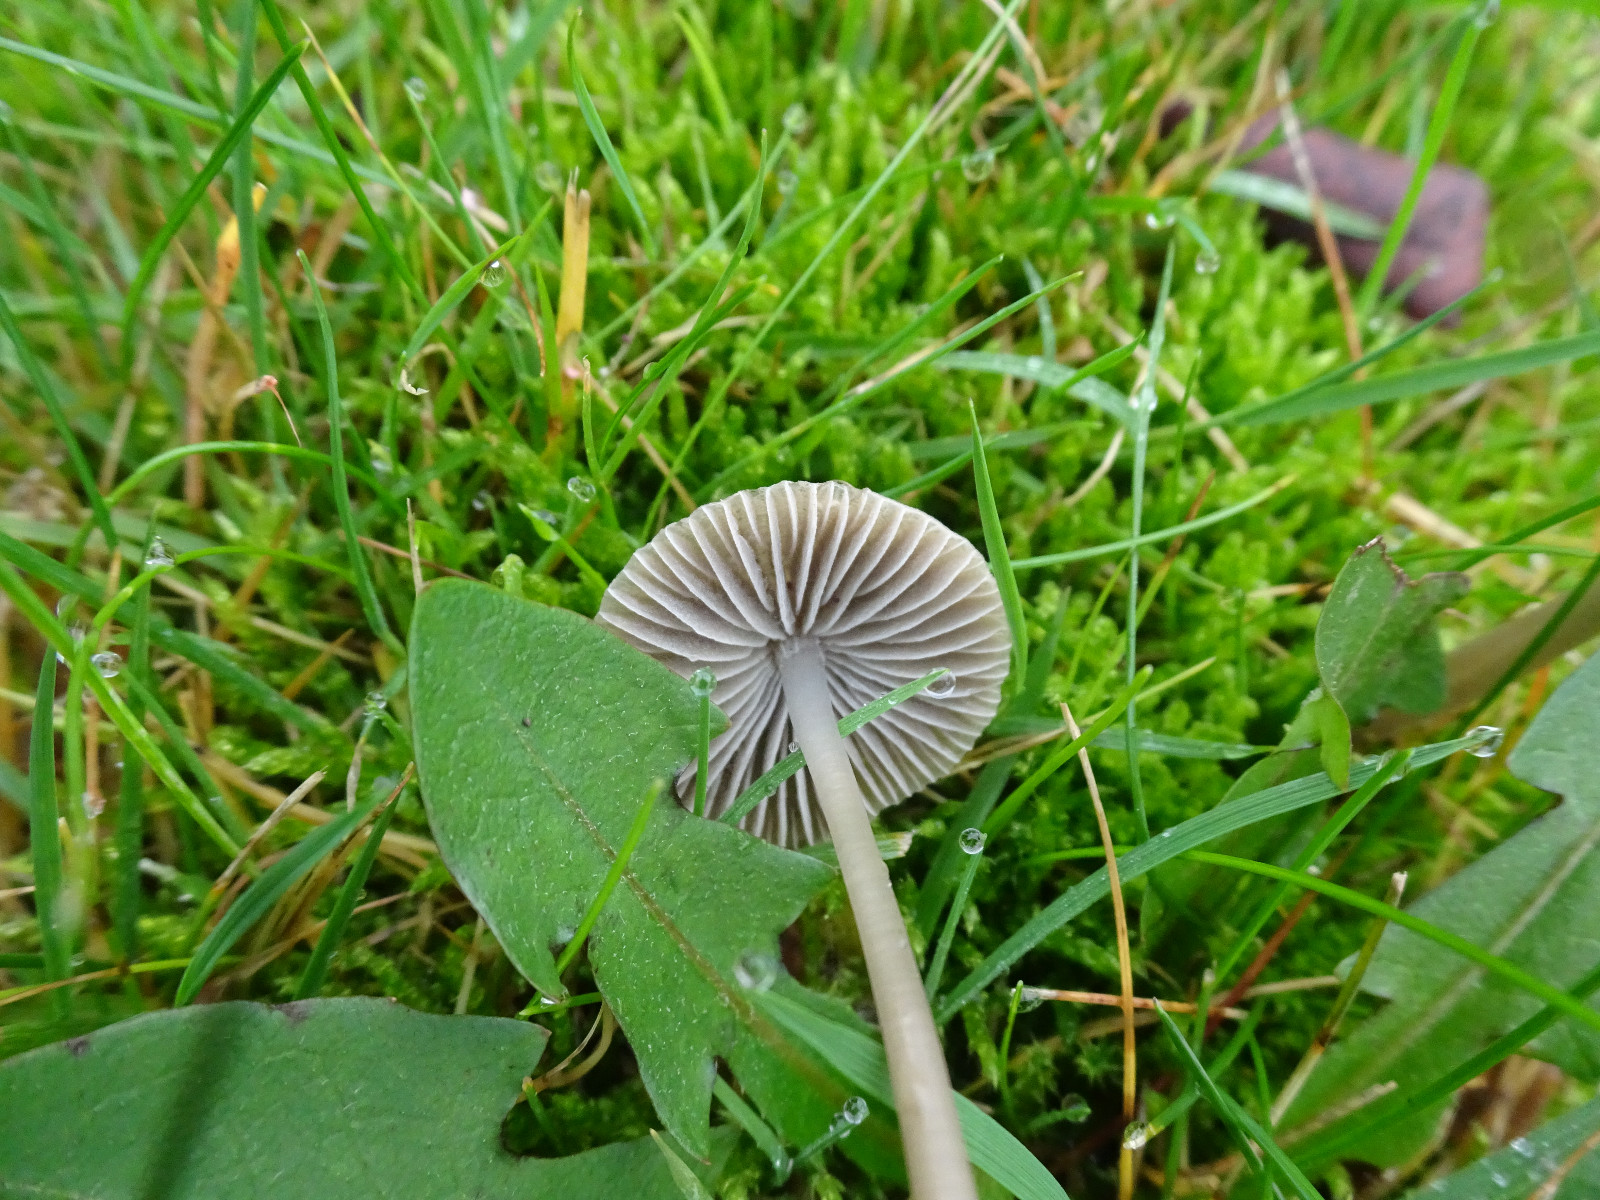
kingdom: Fungi
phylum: Basidiomycota
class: Agaricomycetes
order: Agaricales
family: Mycenaceae
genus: Mycena
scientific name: Mycena aetites
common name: plæne-huesvamp
